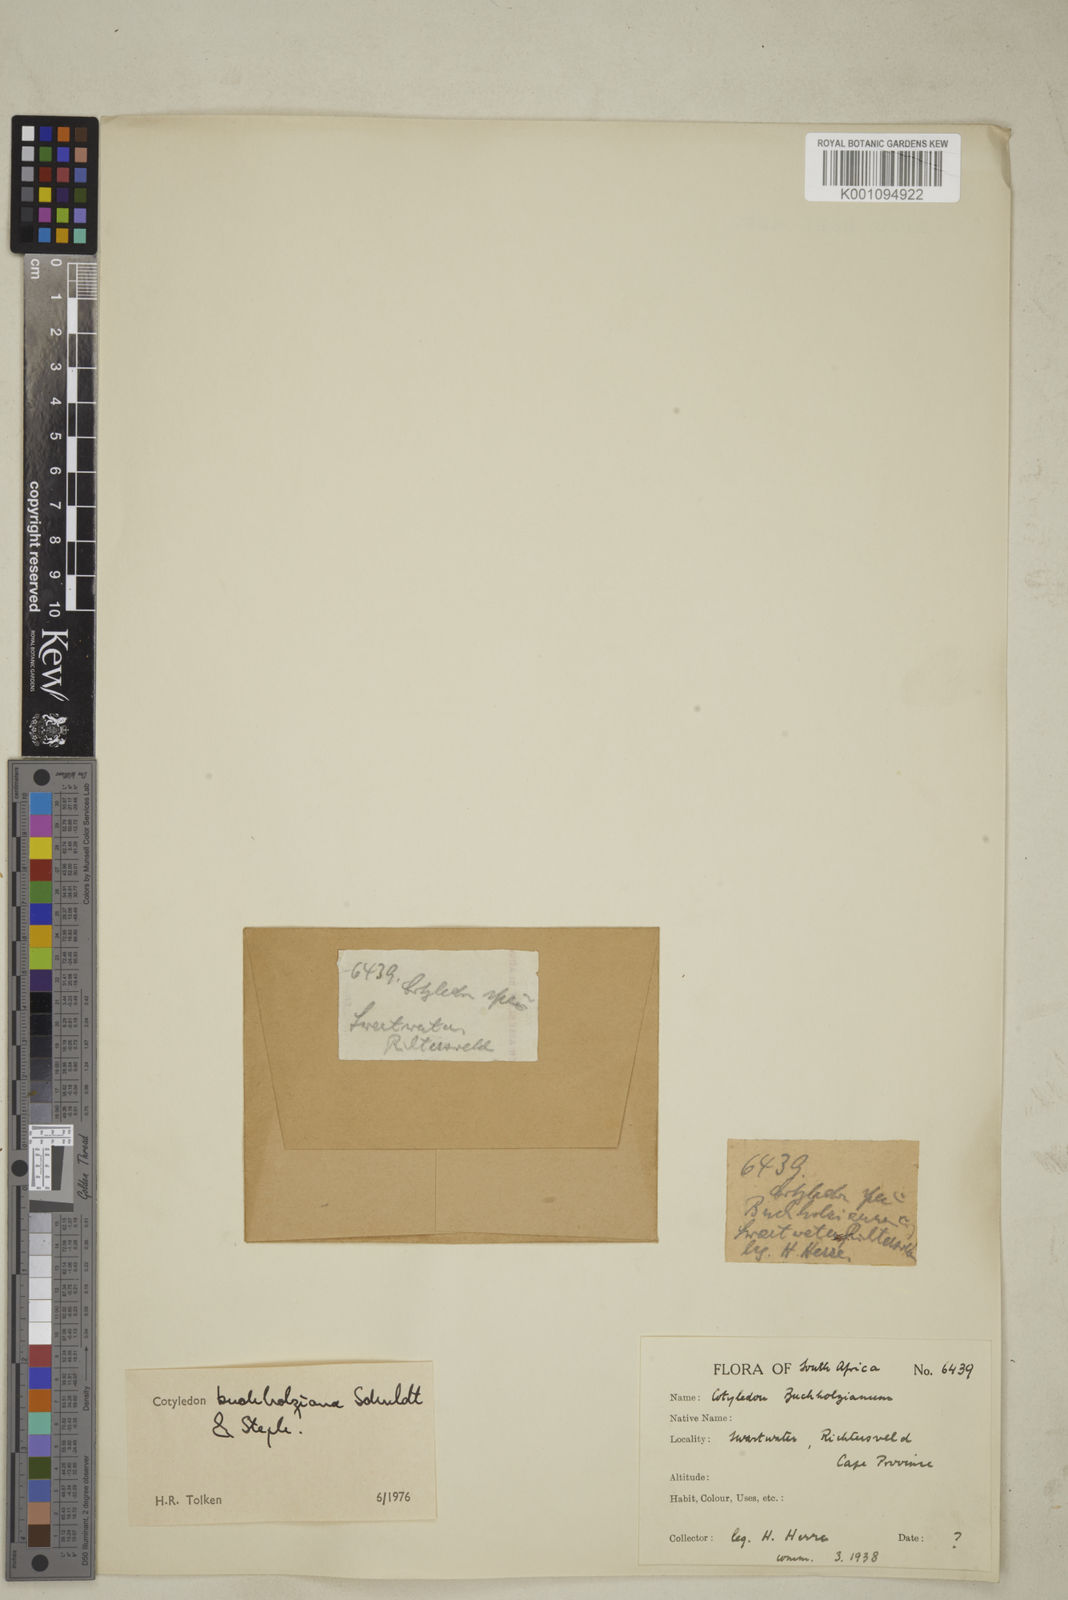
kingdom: Plantae
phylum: Tracheophyta
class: Magnoliopsida
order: Saxifragales
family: Crassulaceae
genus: Tylecodon
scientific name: Tylecodon buchholzianus
